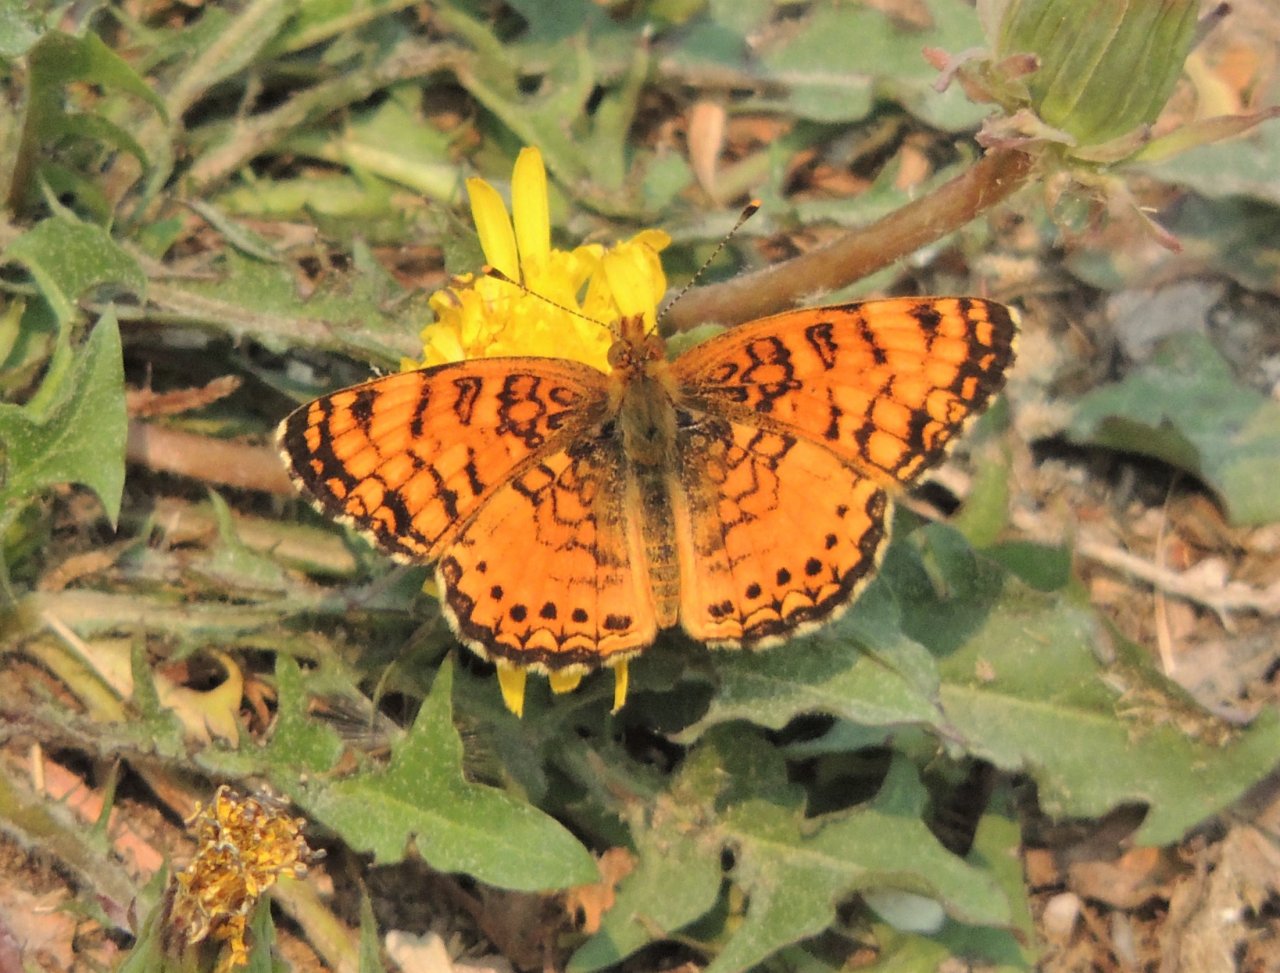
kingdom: Animalia
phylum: Arthropoda
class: Insecta
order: Lepidoptera
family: Nymphalidae
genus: Eresia
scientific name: Eresia aveyrona
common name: Mylitta Crescent
